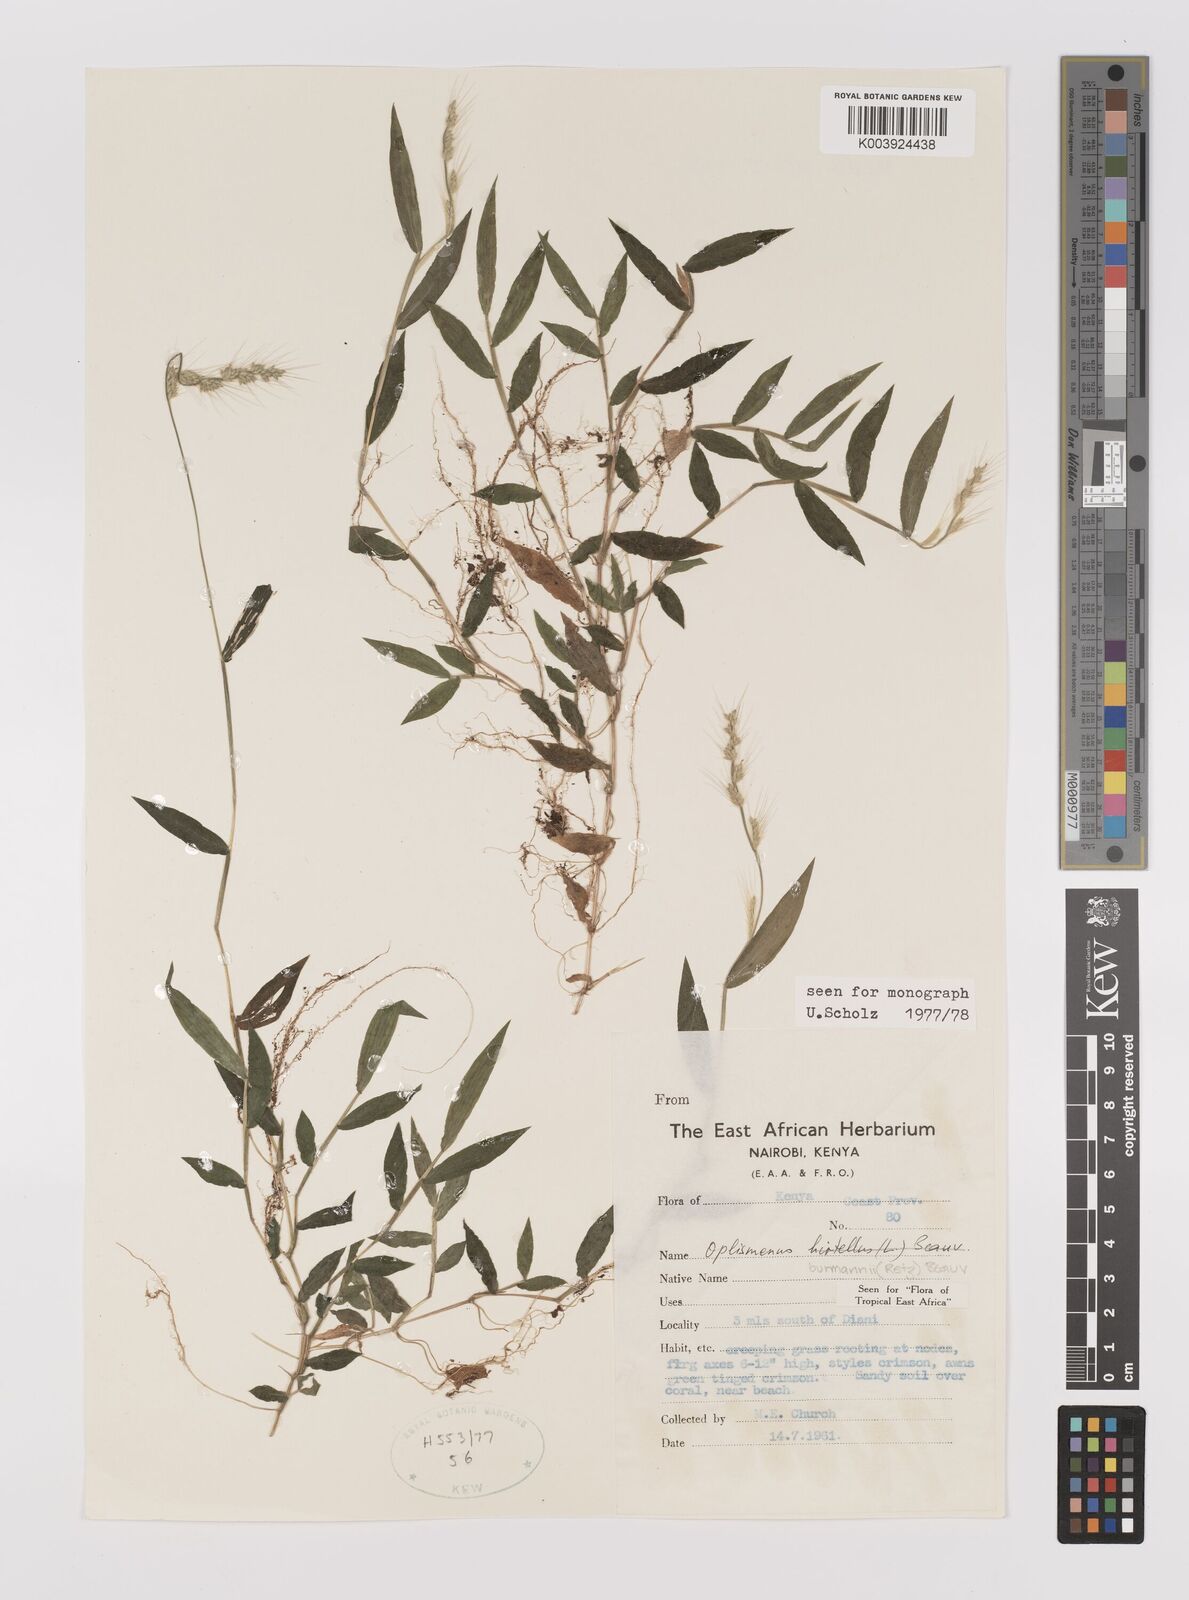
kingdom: Plantae
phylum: Tracheophyta
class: Liliopsida
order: Poales
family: Poaceae
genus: Oplismenus
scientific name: Oplismenus burmanni
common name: Burmann's basketgrass
